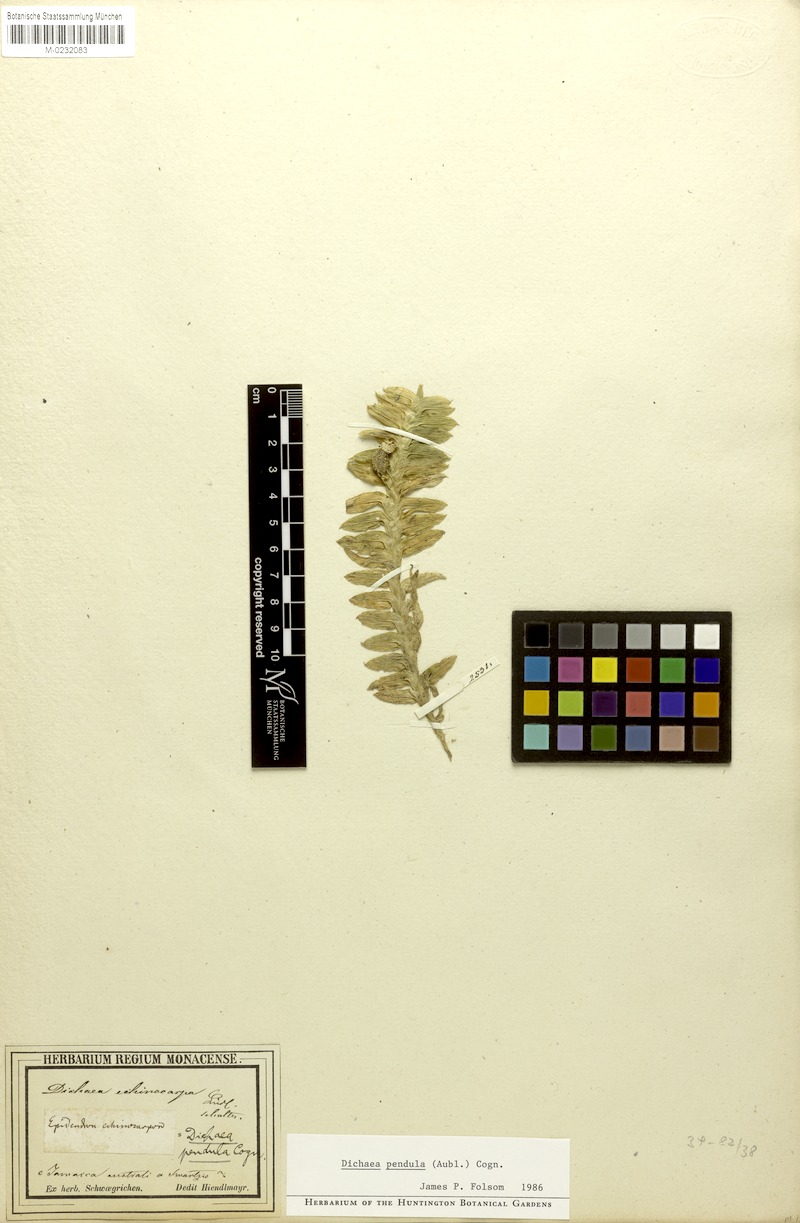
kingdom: Plantae
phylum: Tracheophyta
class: Liliopsida
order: Asparagales
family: Orchidaceae
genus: Dichaea
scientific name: Dichaea pendula
